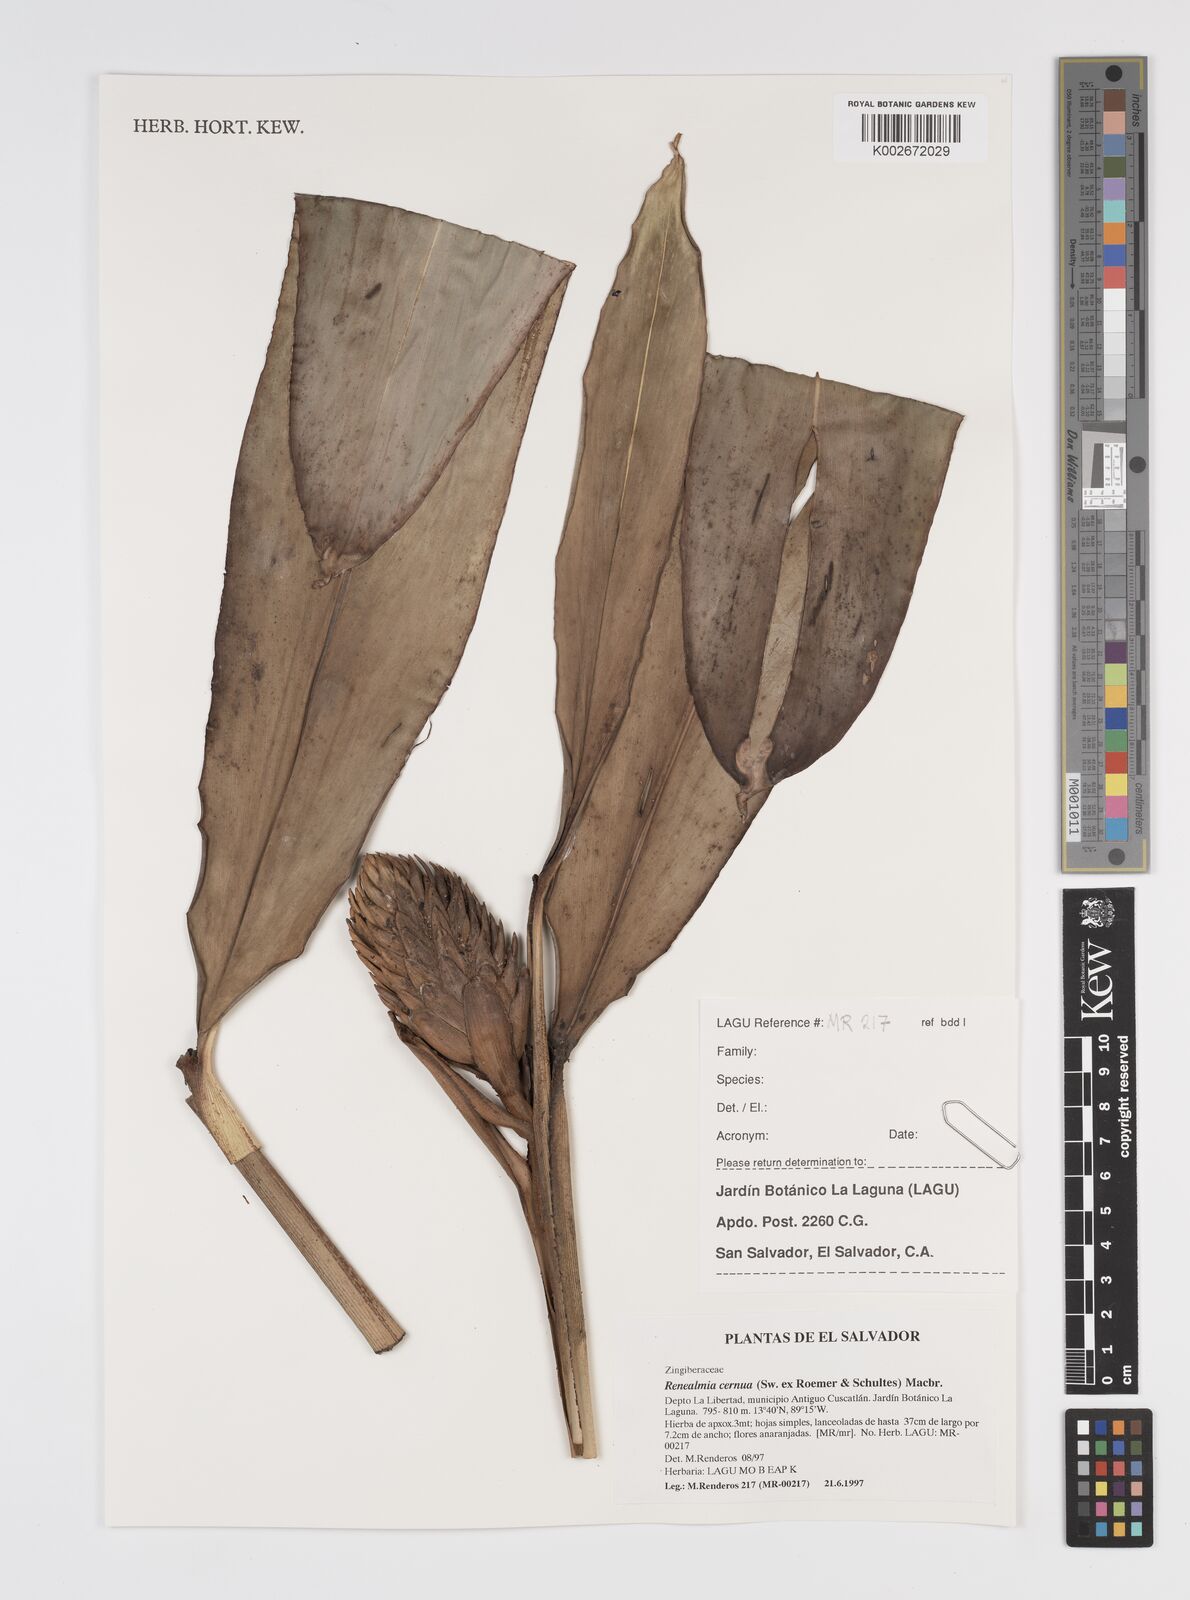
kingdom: Plantae
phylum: Tracheophyta
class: Liliopsida
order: Zingiberales
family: Zingiberaceae
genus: Renealmia
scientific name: Renealmia cernua
